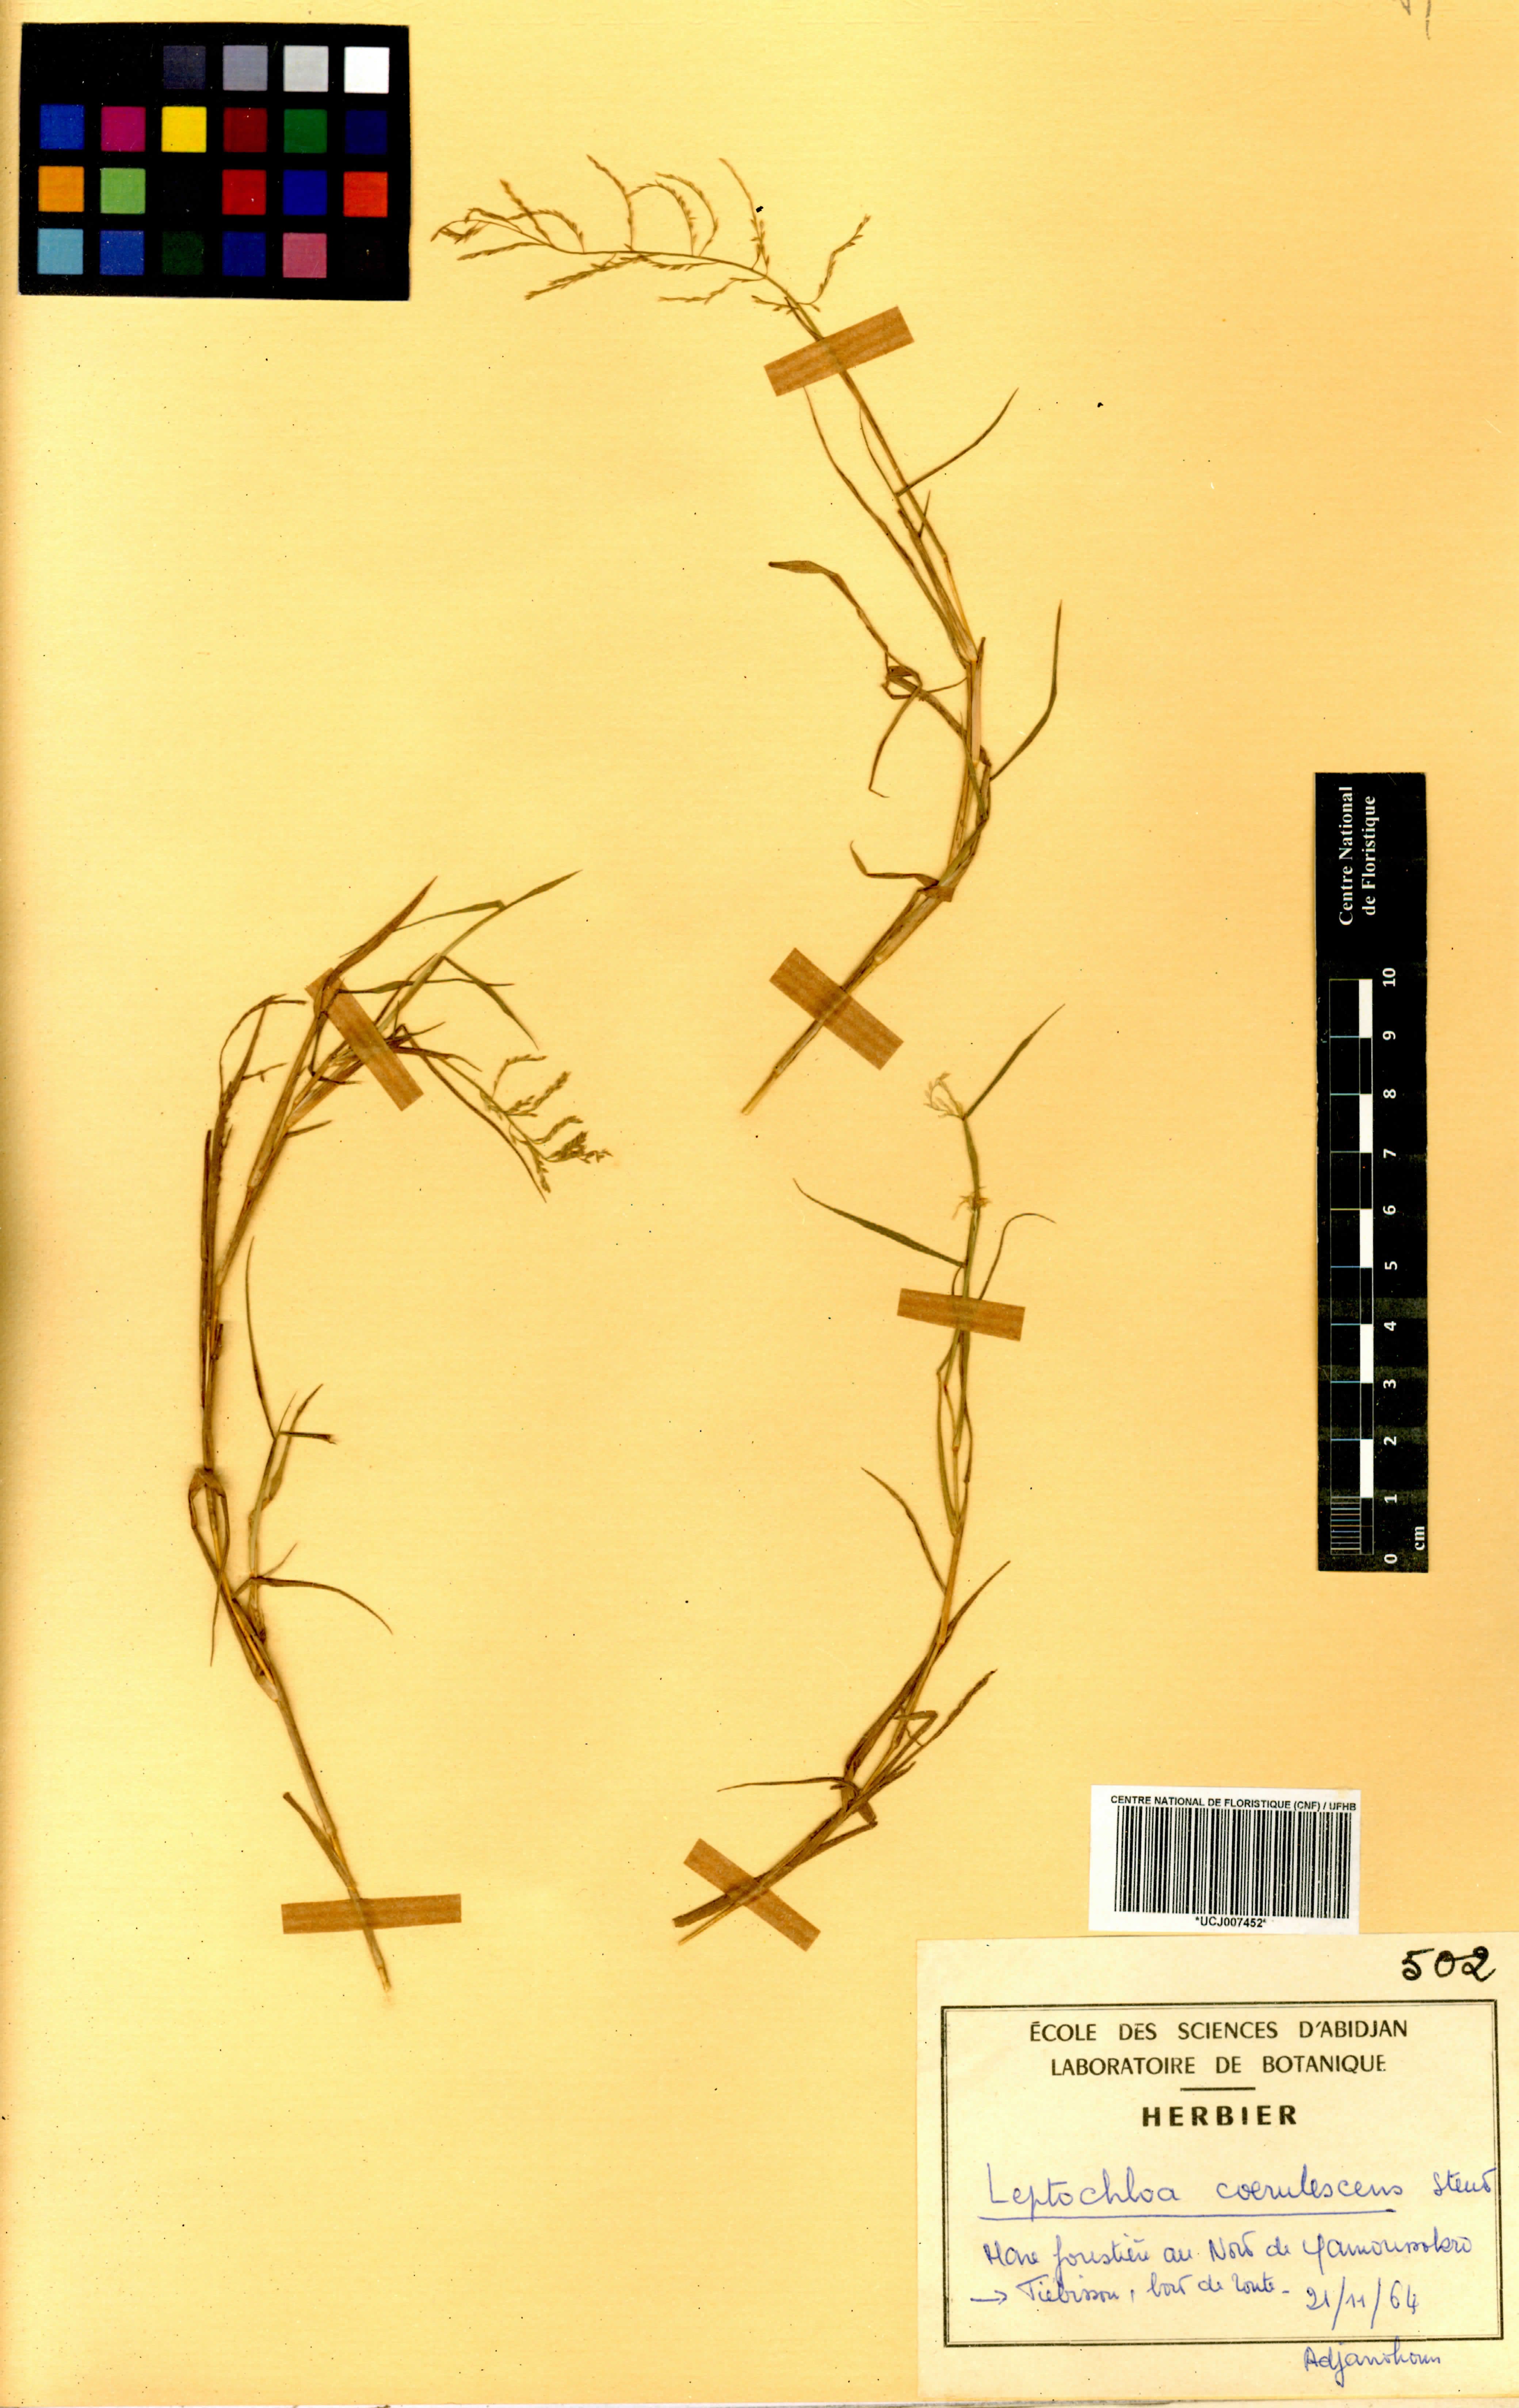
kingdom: Plantae
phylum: Tracheophyta
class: Liliopsida
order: Poales
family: Poaceae
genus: Leptochloa
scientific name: Leptochloa caerulescens
